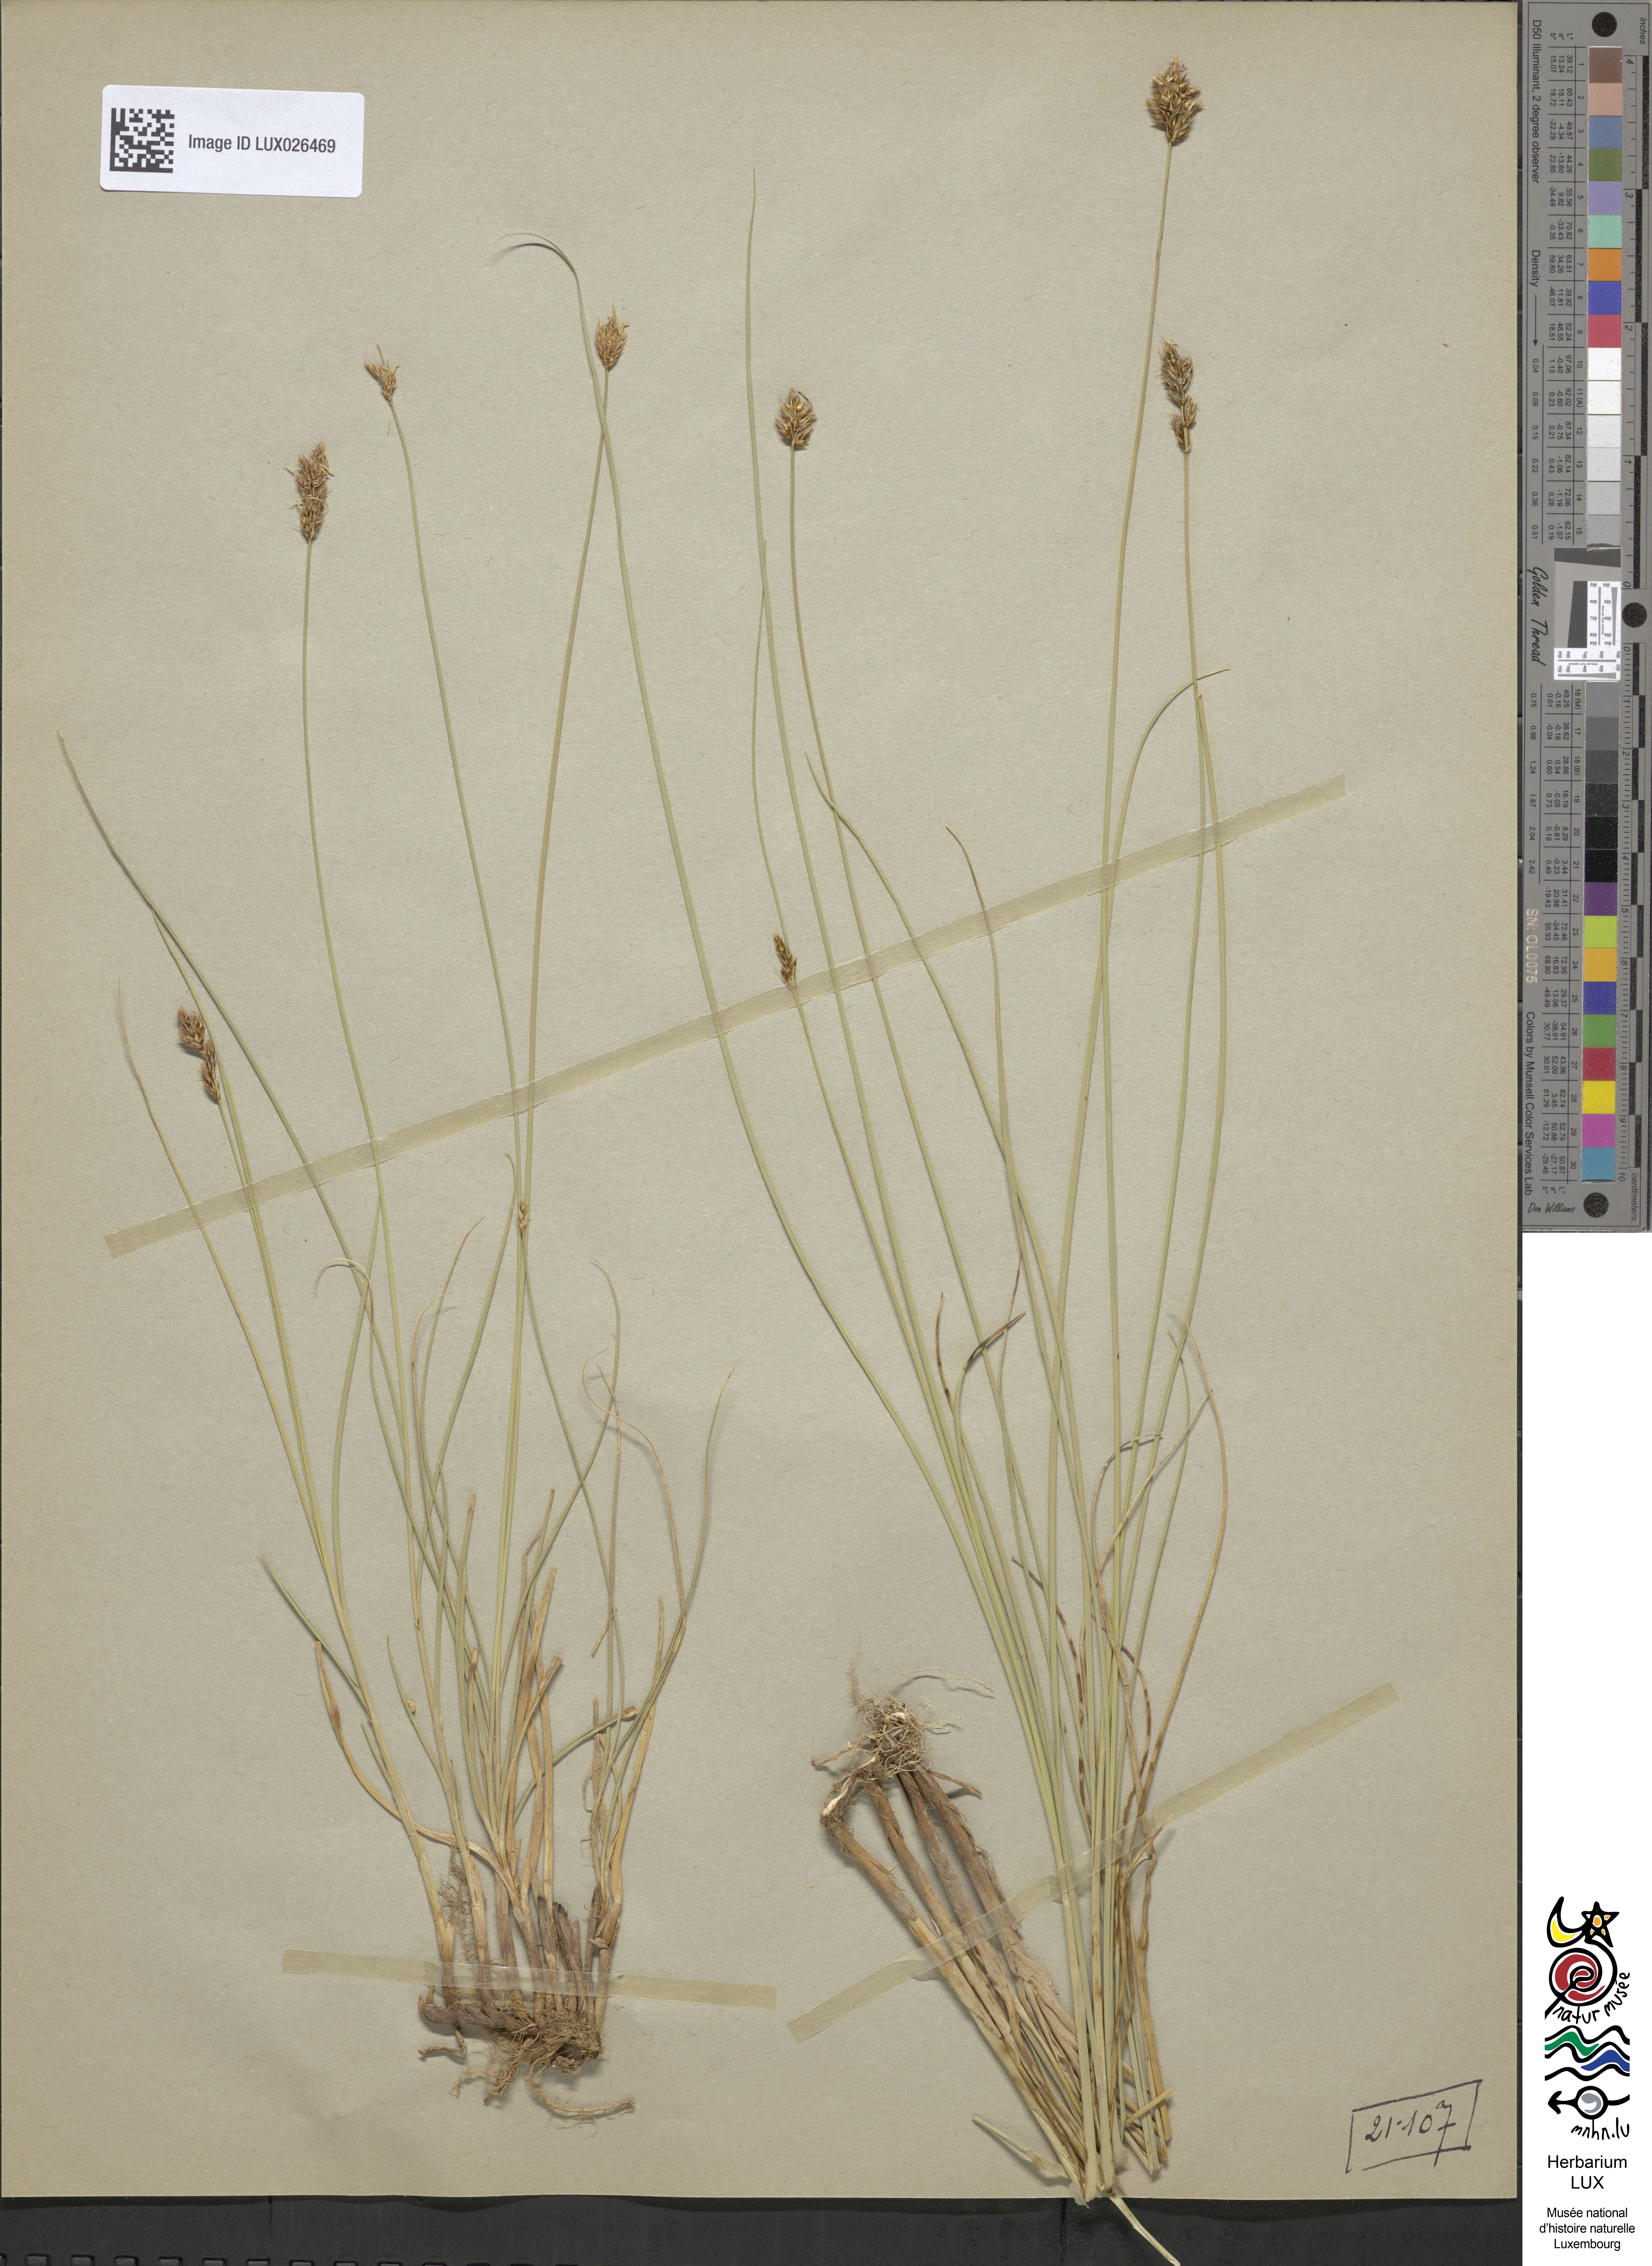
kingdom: Plantae
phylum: Tracheophyta
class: Liliopsida
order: Poales
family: Cyperaceae
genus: Carex
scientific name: Carex divisa
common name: Divided sedge
